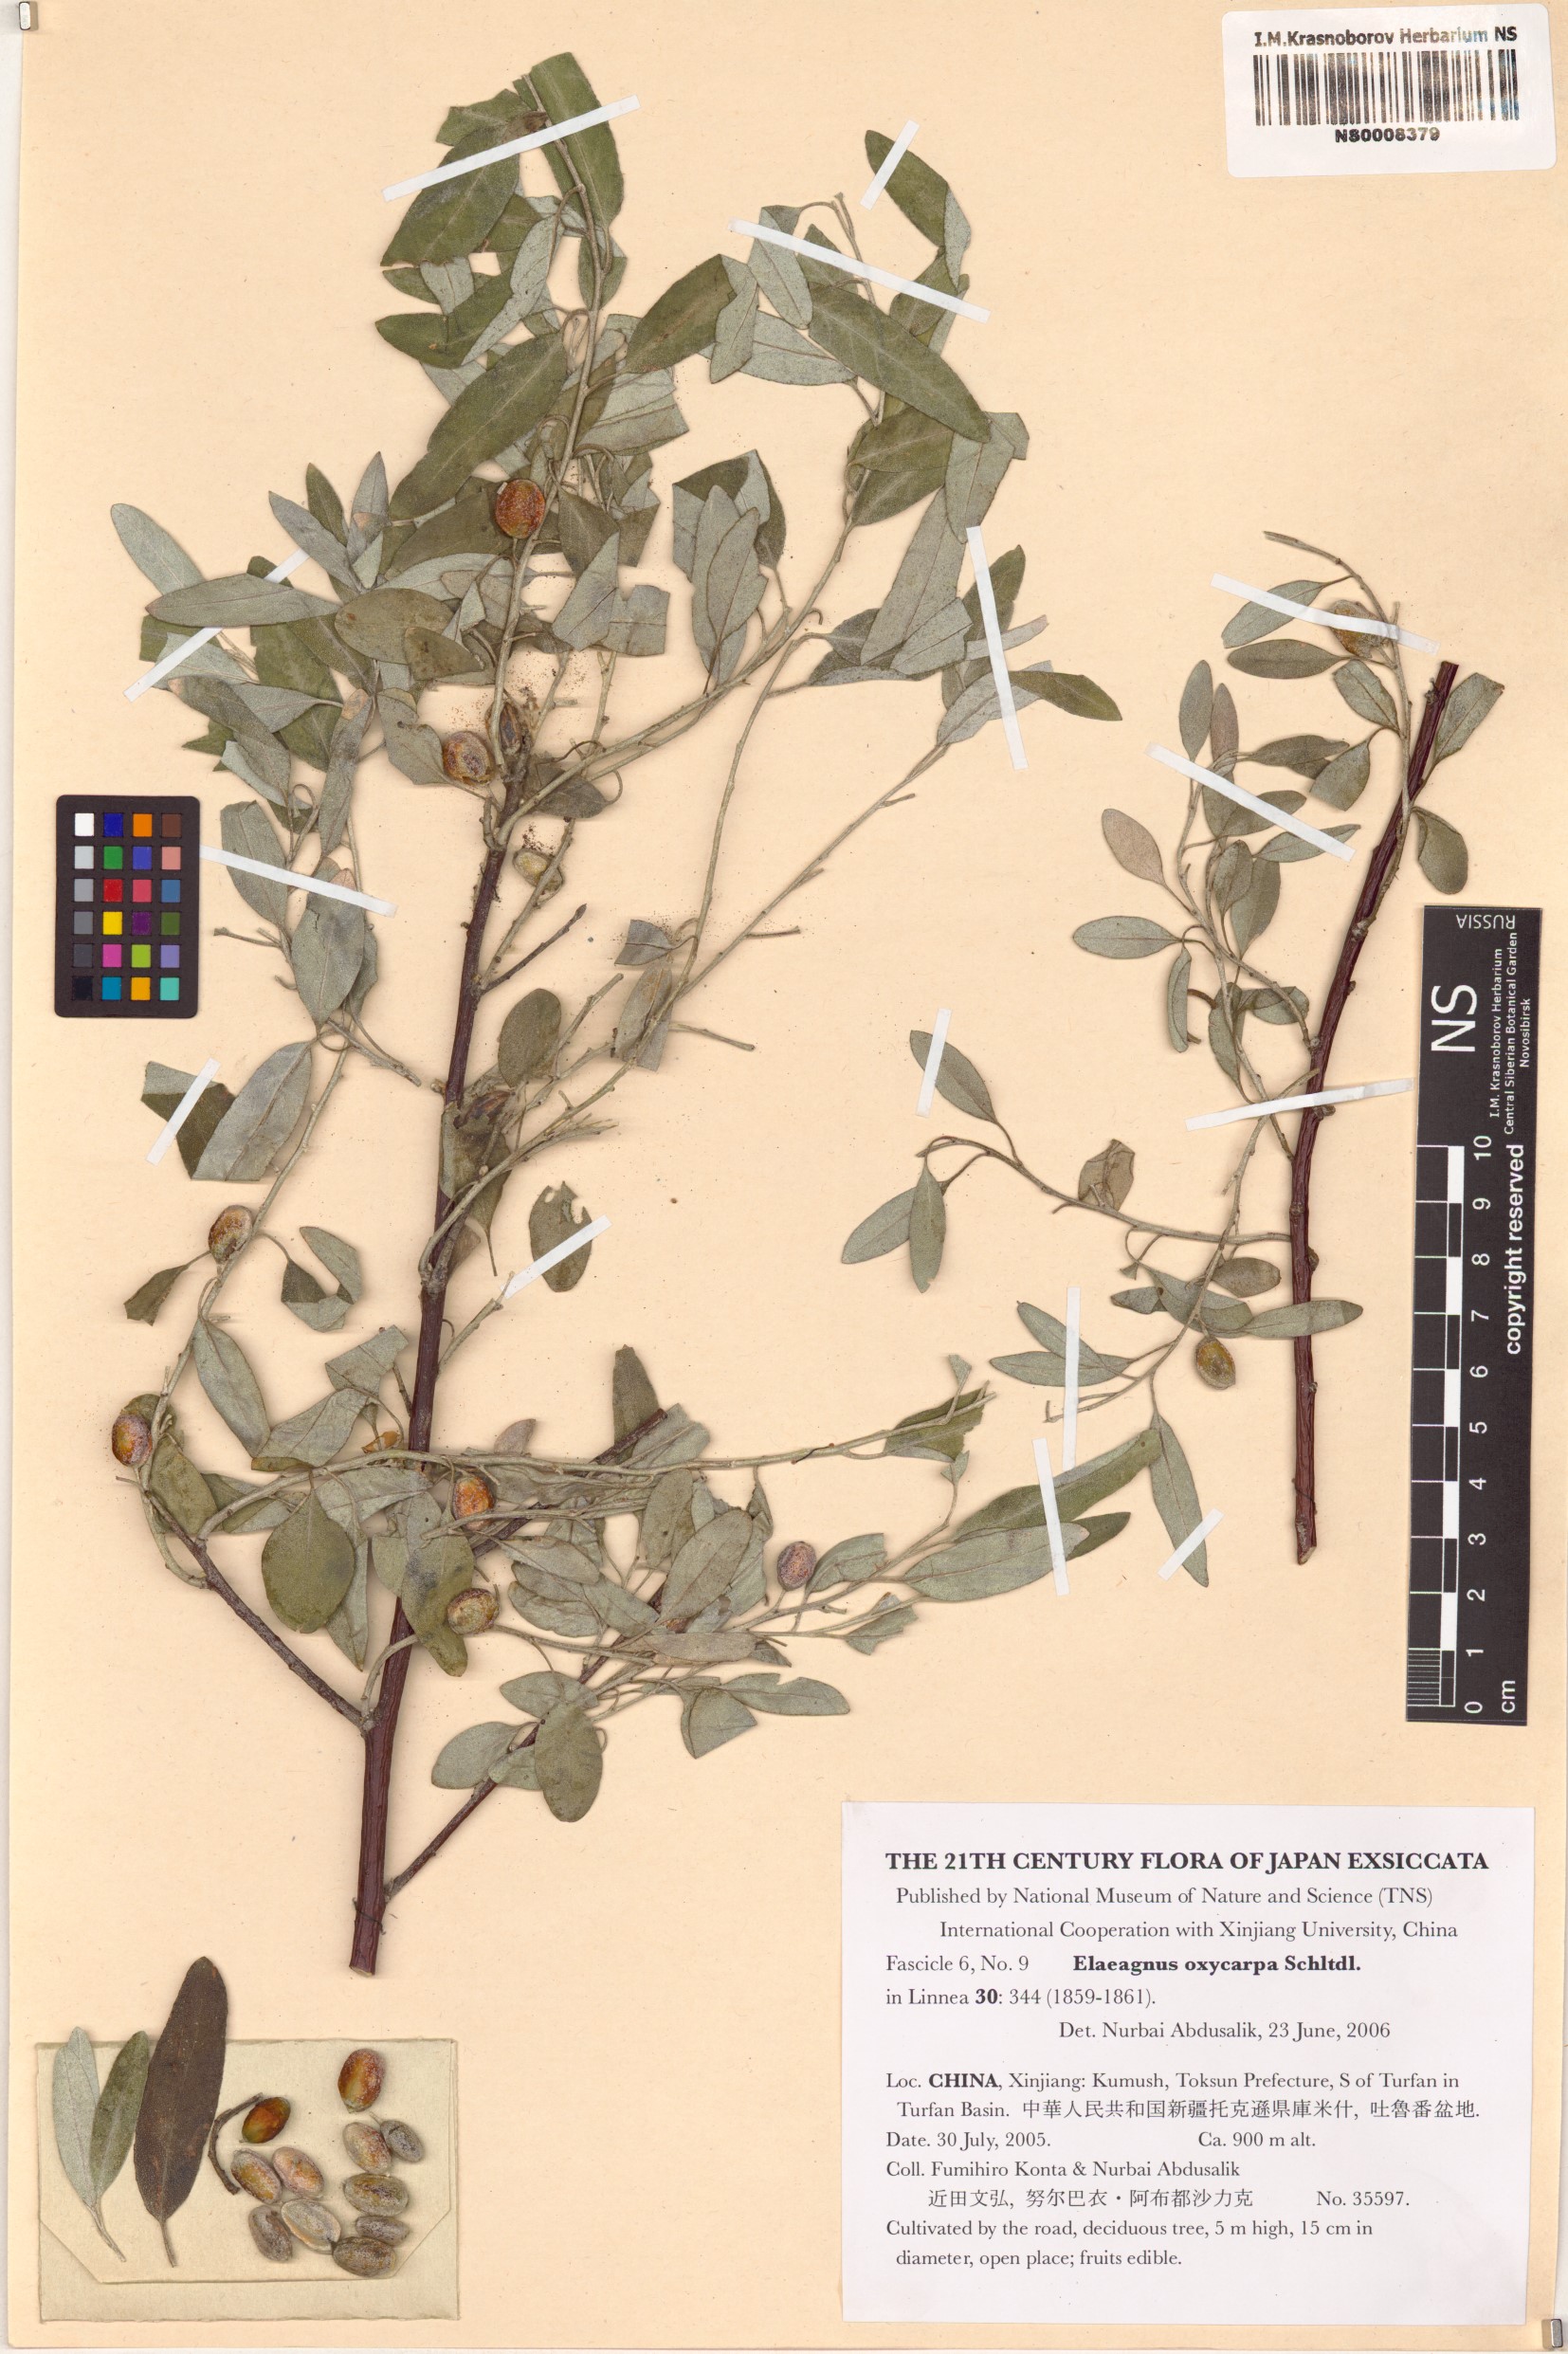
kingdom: Plantae
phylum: Tracheophyta
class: Magnoliopsida
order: Rosales
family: Elaeagnaceae
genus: Elaeagnus
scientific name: Elaeagnus angustifolia
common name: Russian olive
